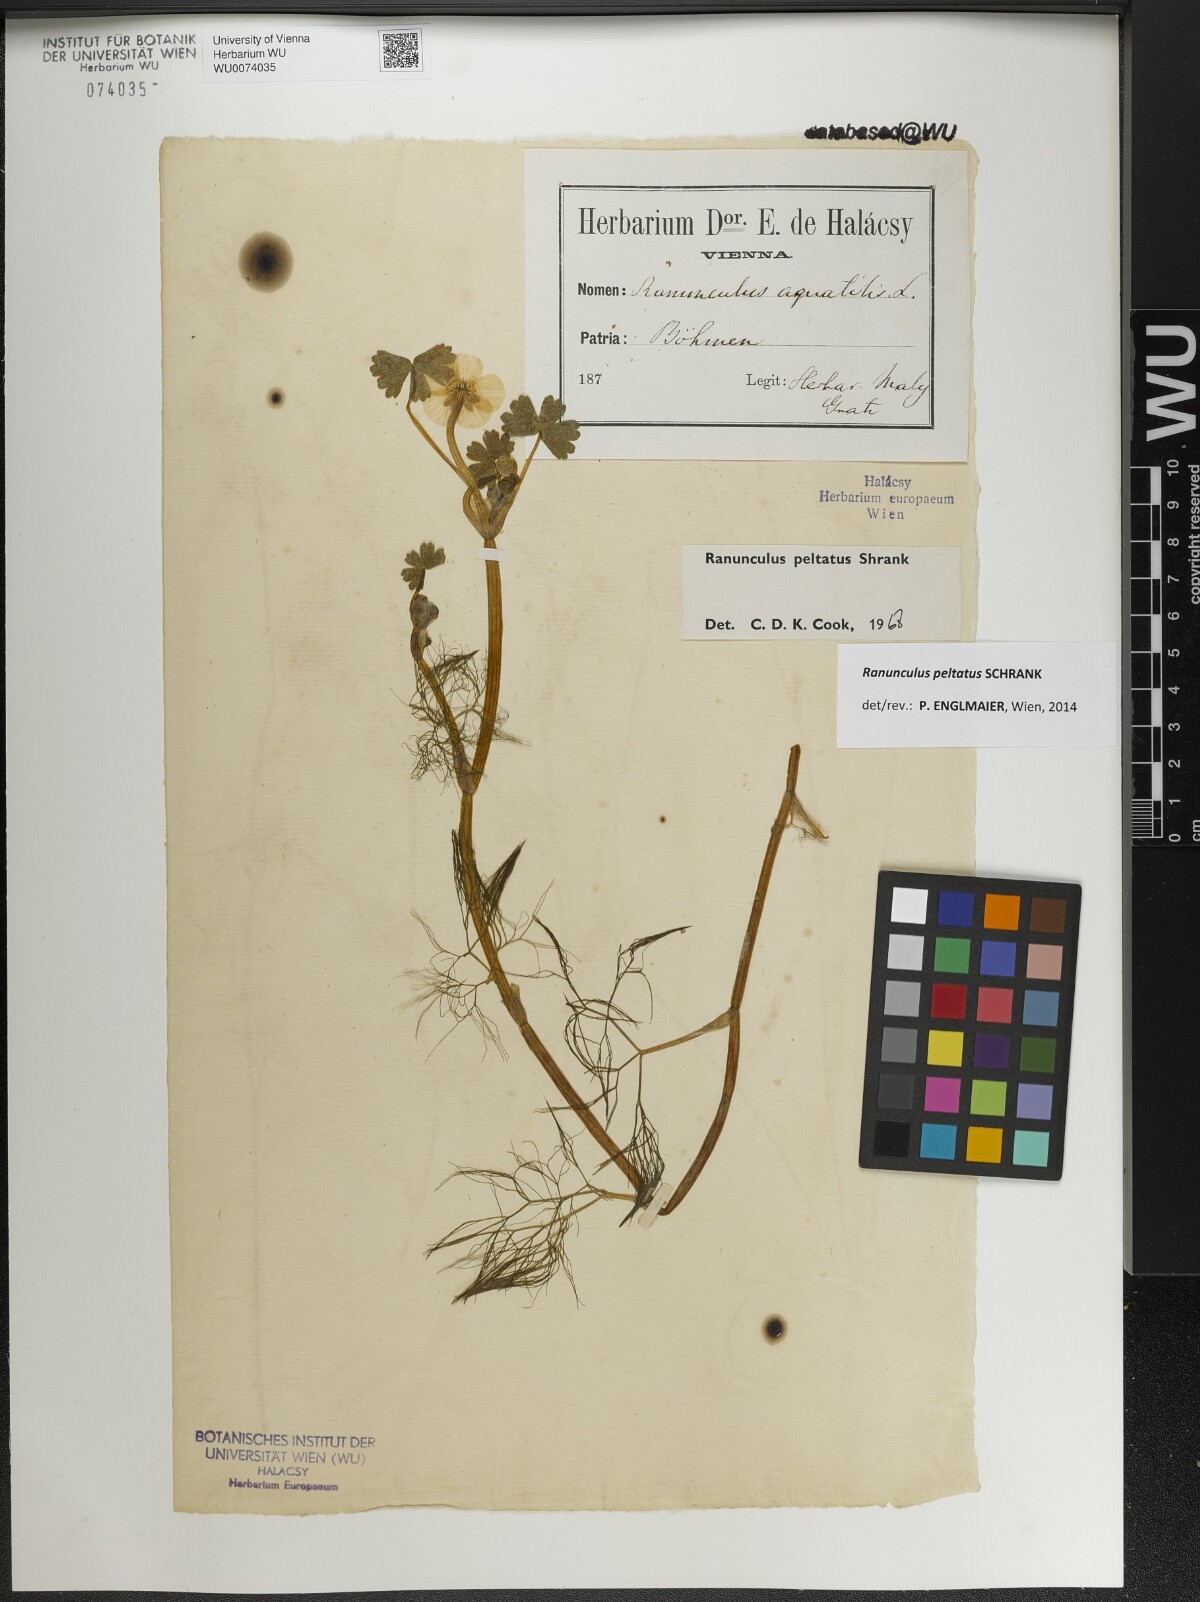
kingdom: Plantae
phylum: Tracheophyta
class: Magnoliopsida
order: Ranunculales
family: Ranunculaceae
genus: Ranunculus
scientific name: Ranunculus peltatus
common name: Pond water-crowfoot
